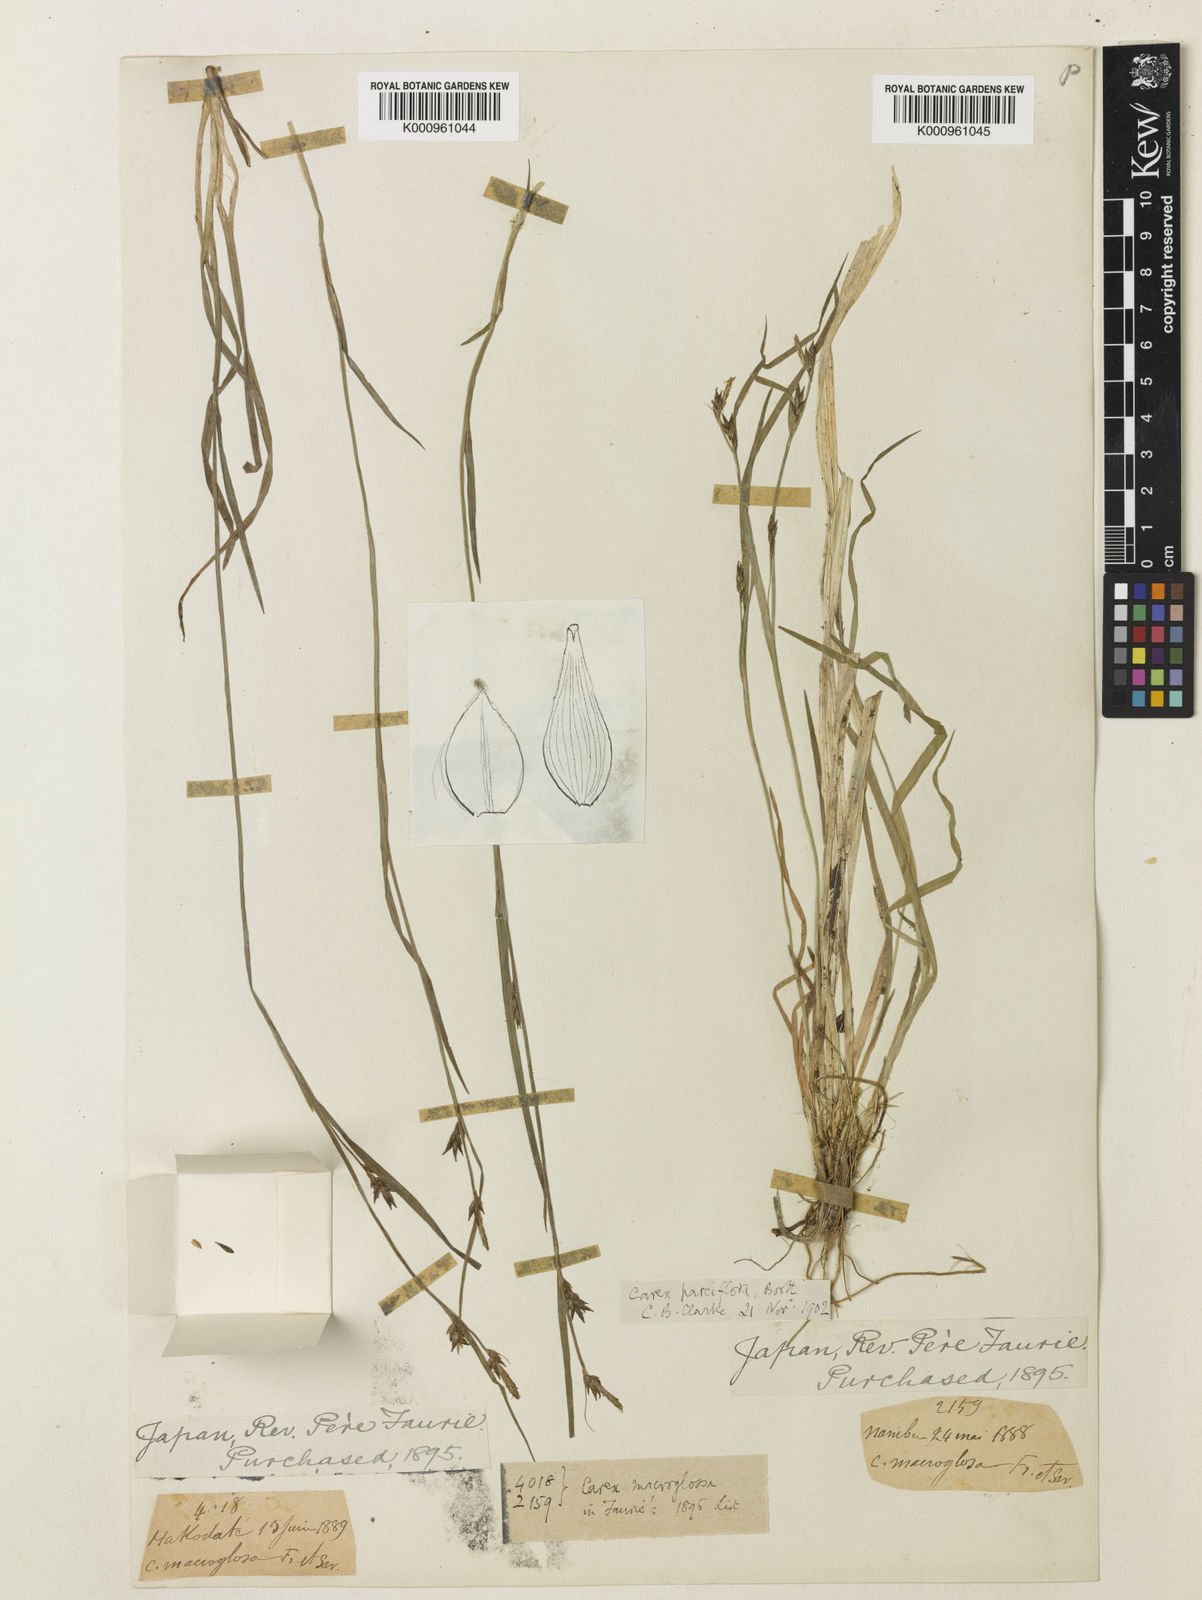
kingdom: Plantae
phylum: Tracheophyta
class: Liliopsida
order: Poales
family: Cyperaceae
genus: Carex
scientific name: Carex jackiana
